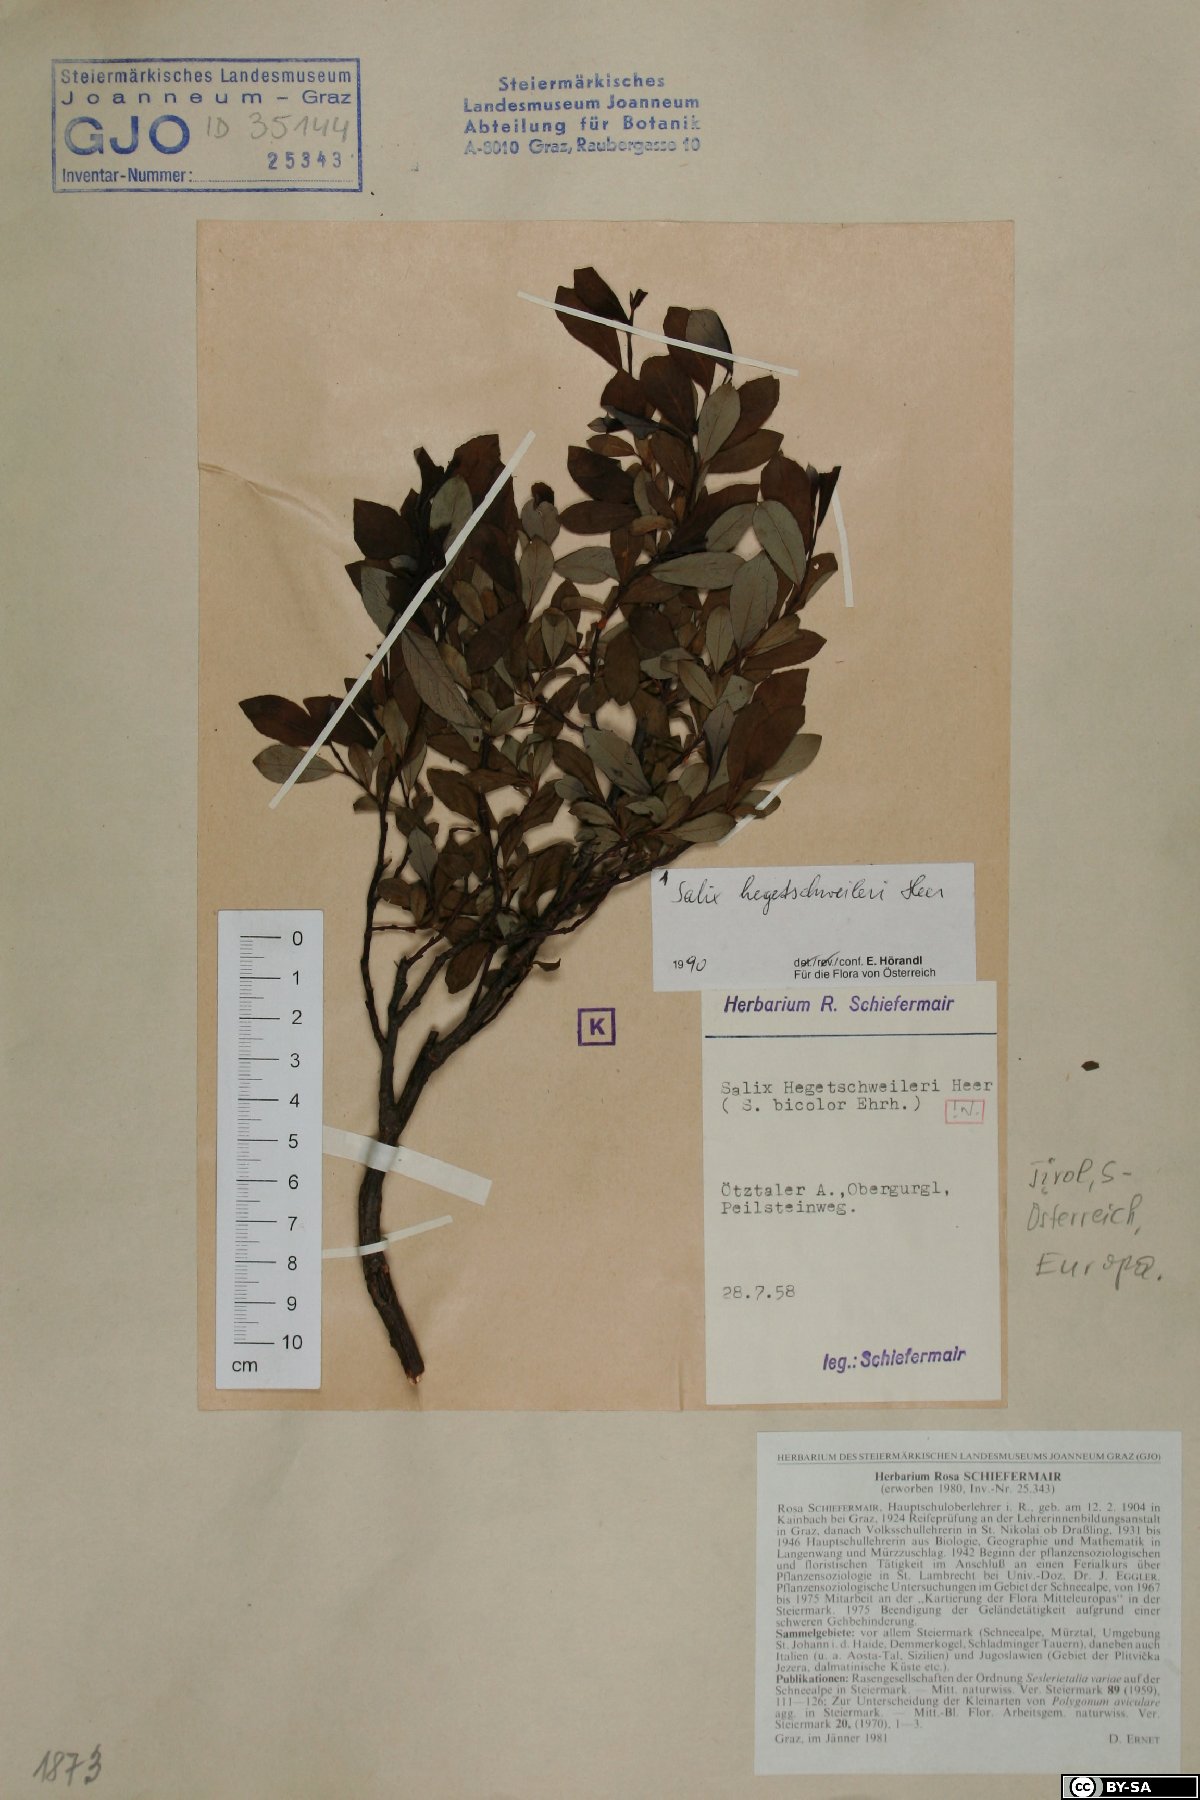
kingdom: Plantae
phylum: Tracheophyta
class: Magnoliopsida
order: Malpighiales
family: Salicaceae
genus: Salix
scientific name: Salix hegetschweileri
